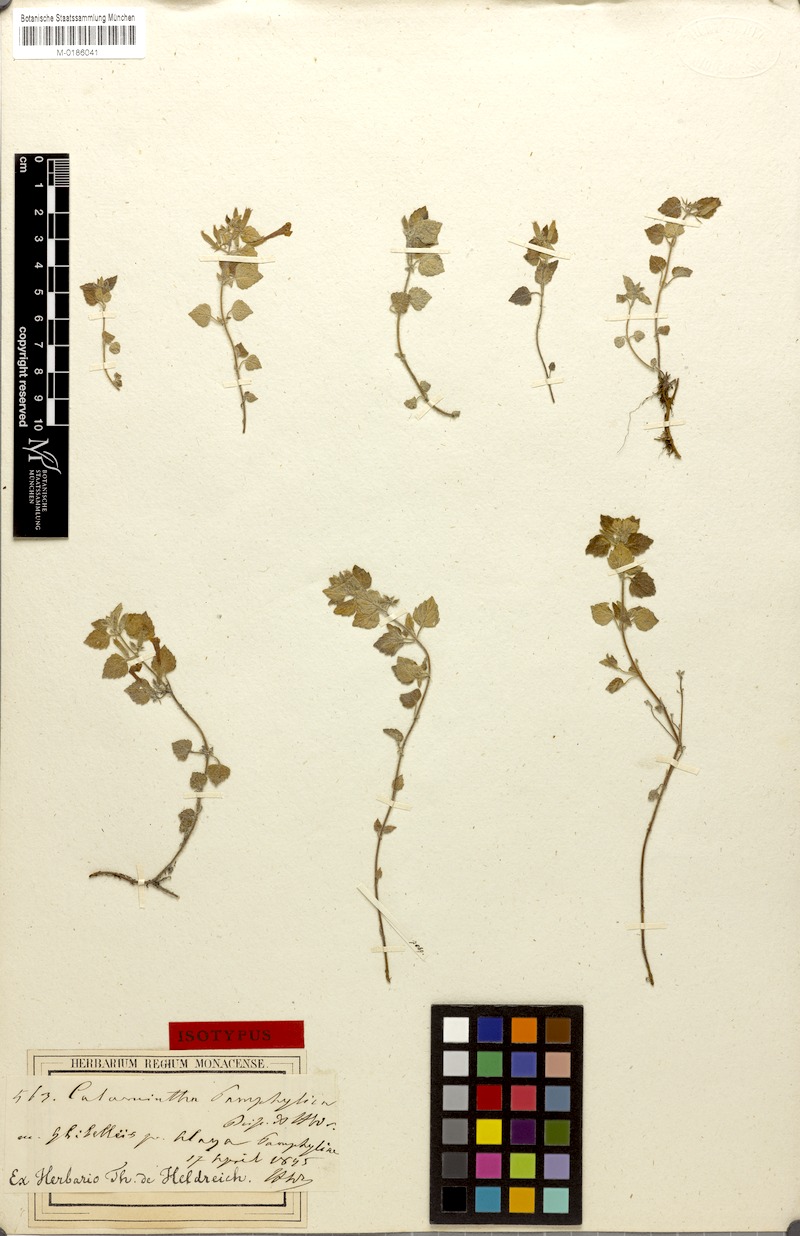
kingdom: Plantae
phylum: Tracheophyta
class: Magnoliopsida
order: Lamiales
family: Lamiaceae
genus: Clinopodium
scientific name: Clinopodium pamphylicum
